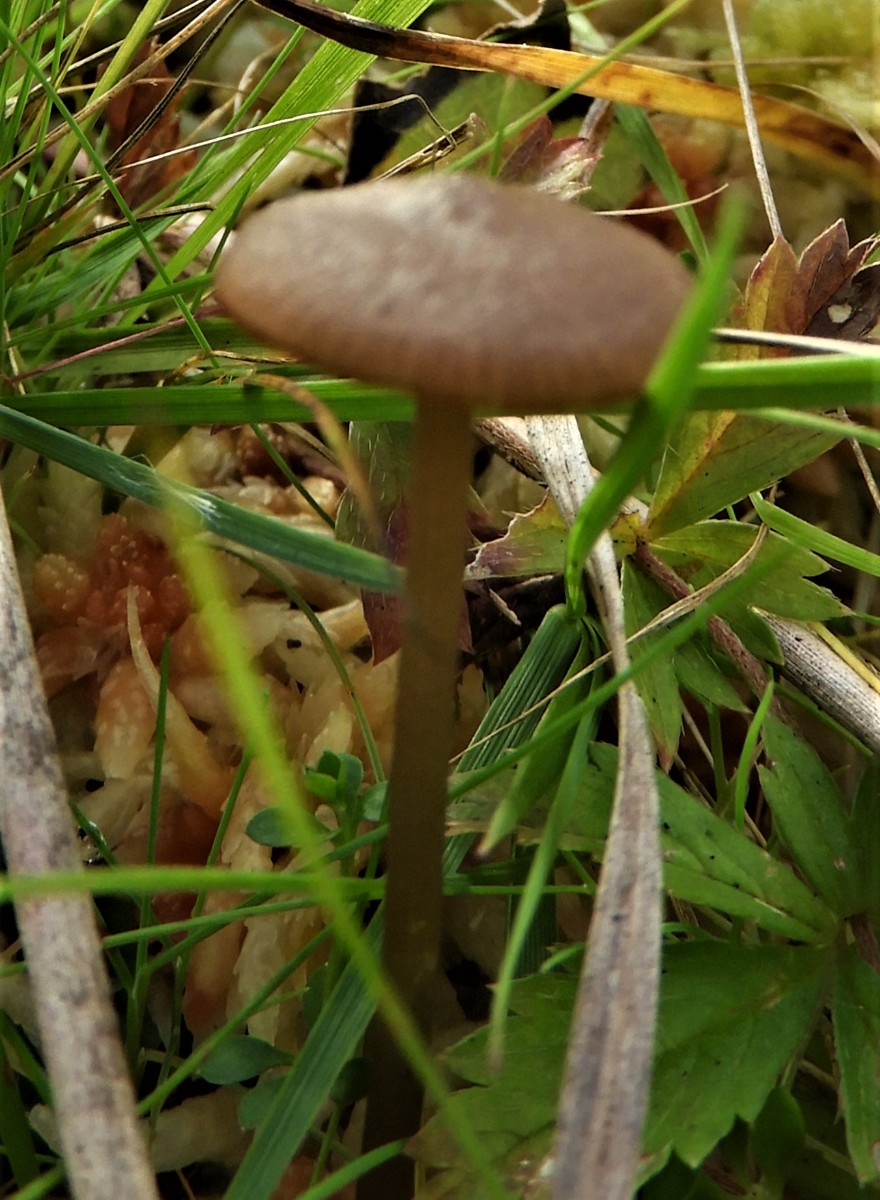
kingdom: Fungi
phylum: Basidiomycota
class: Agaricomycetes
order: Agaricales
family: Lyophyllaceae
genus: Sphagnurus
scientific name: Sphagnurus paluster
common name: tørvemos-gråblad
